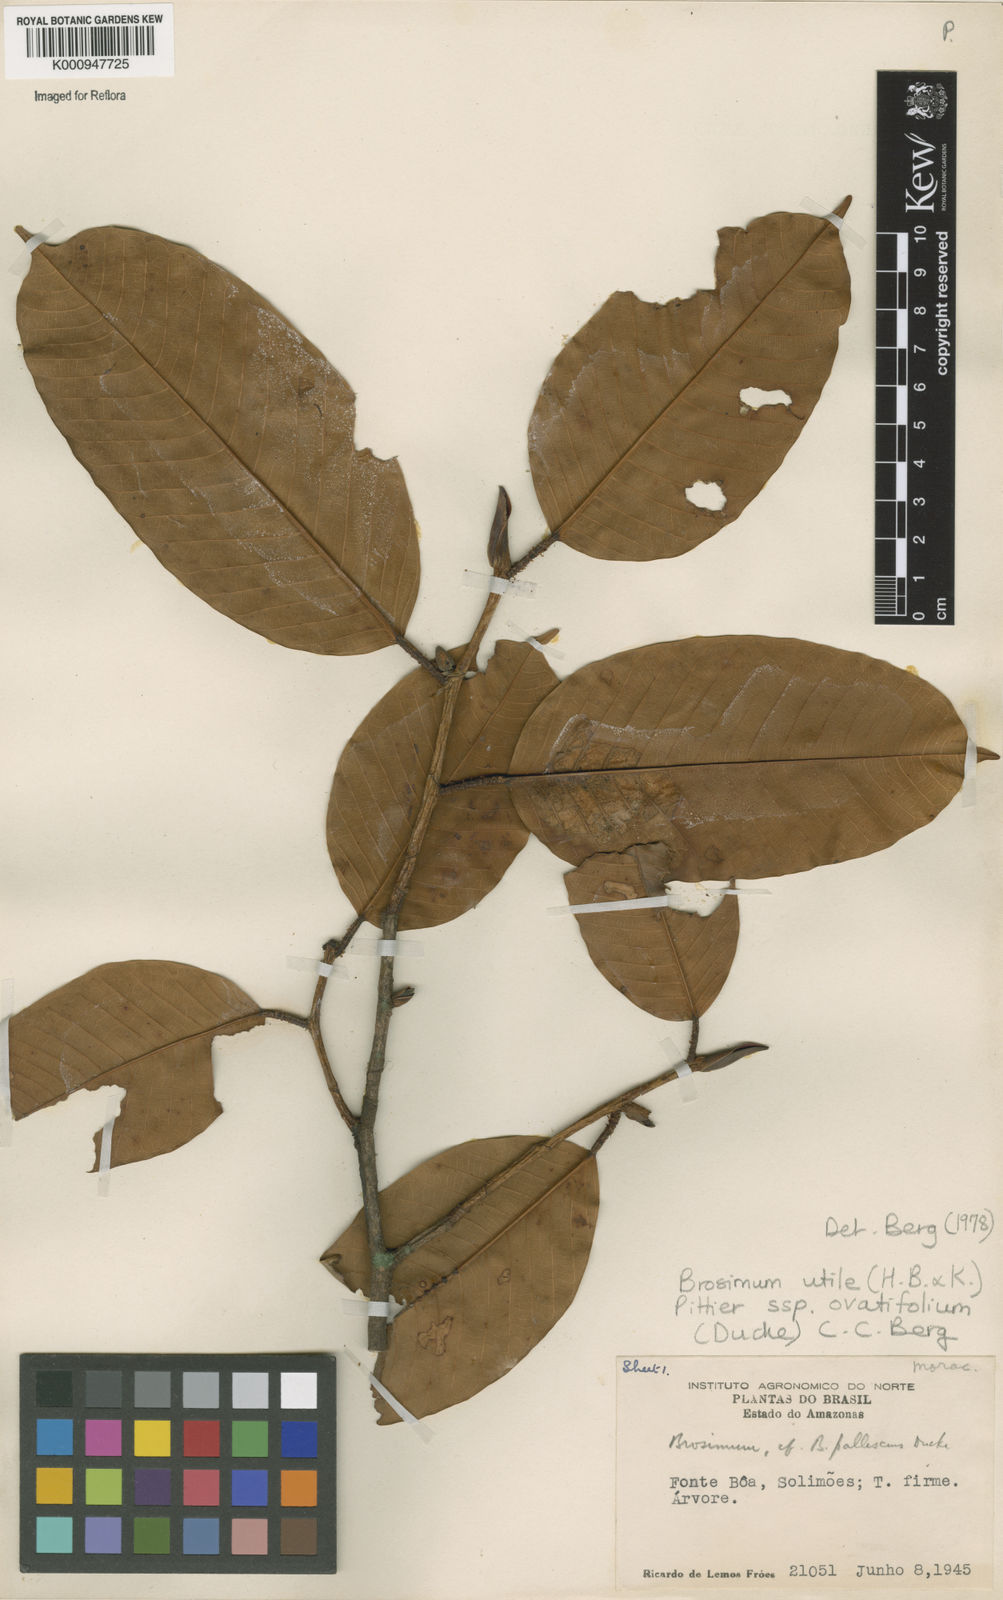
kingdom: Plantae
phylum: Tracheophyta
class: Magnoliopsida
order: Rosales
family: Moraceae
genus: Brosimum
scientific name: Brosimum utile
